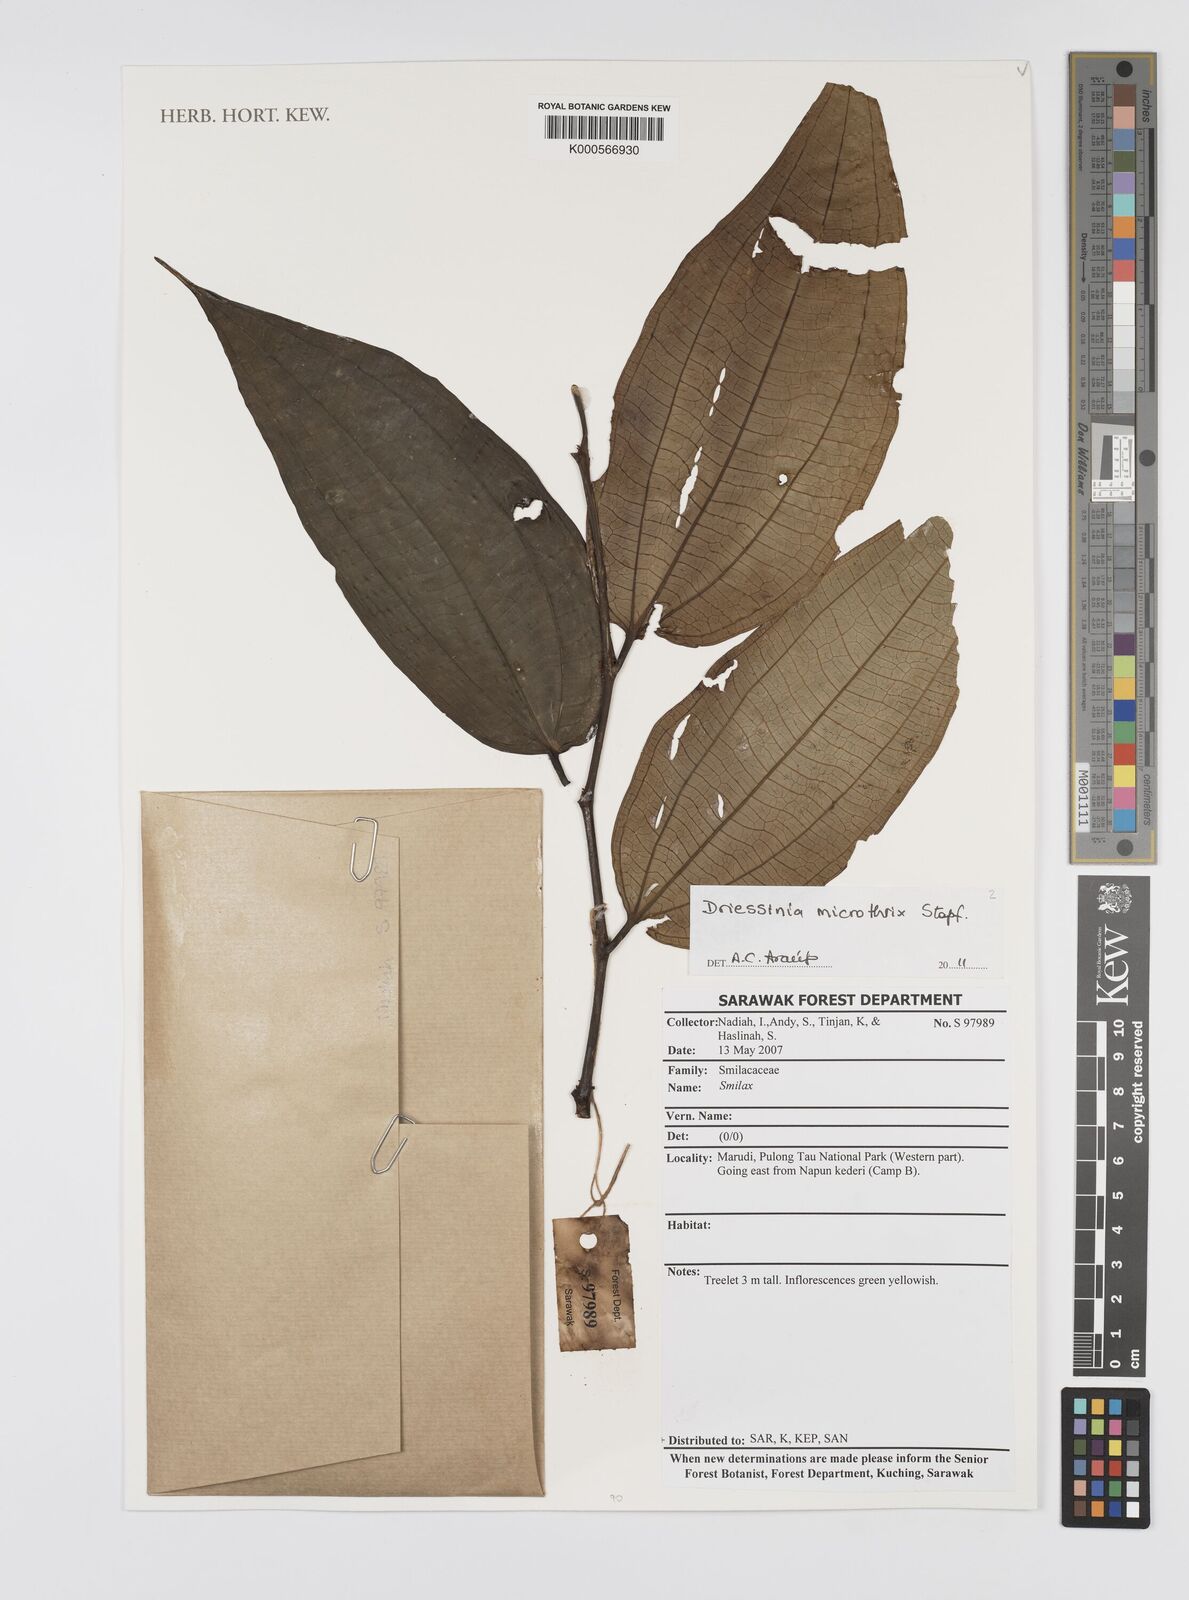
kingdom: Plantae
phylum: Tracheophyta
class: Magnoliopsida
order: Myrtales
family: Melastomataceae
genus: Driessenia
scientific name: Driessenia microthrix
